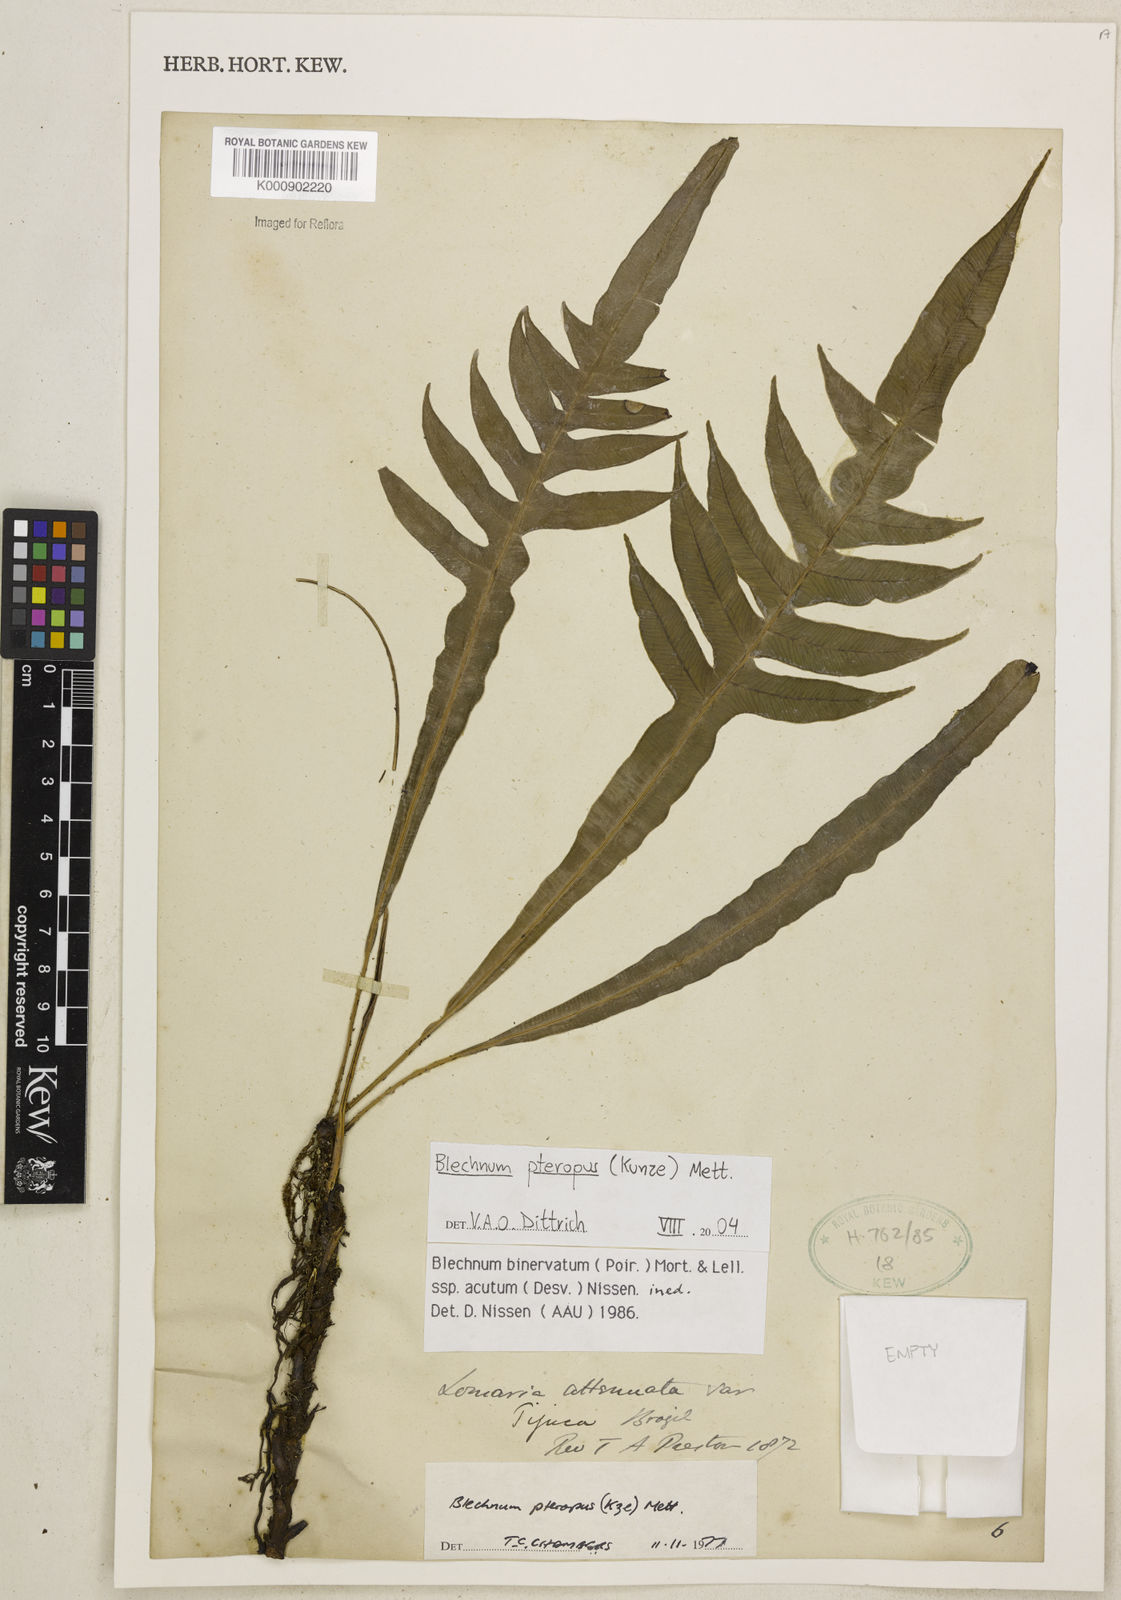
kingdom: Plantae
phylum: Tracheophyta
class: Polypodiopsida
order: Polypodiales
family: Blechnaceae
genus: Lomaridium
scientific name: Lomaridium pteropus
